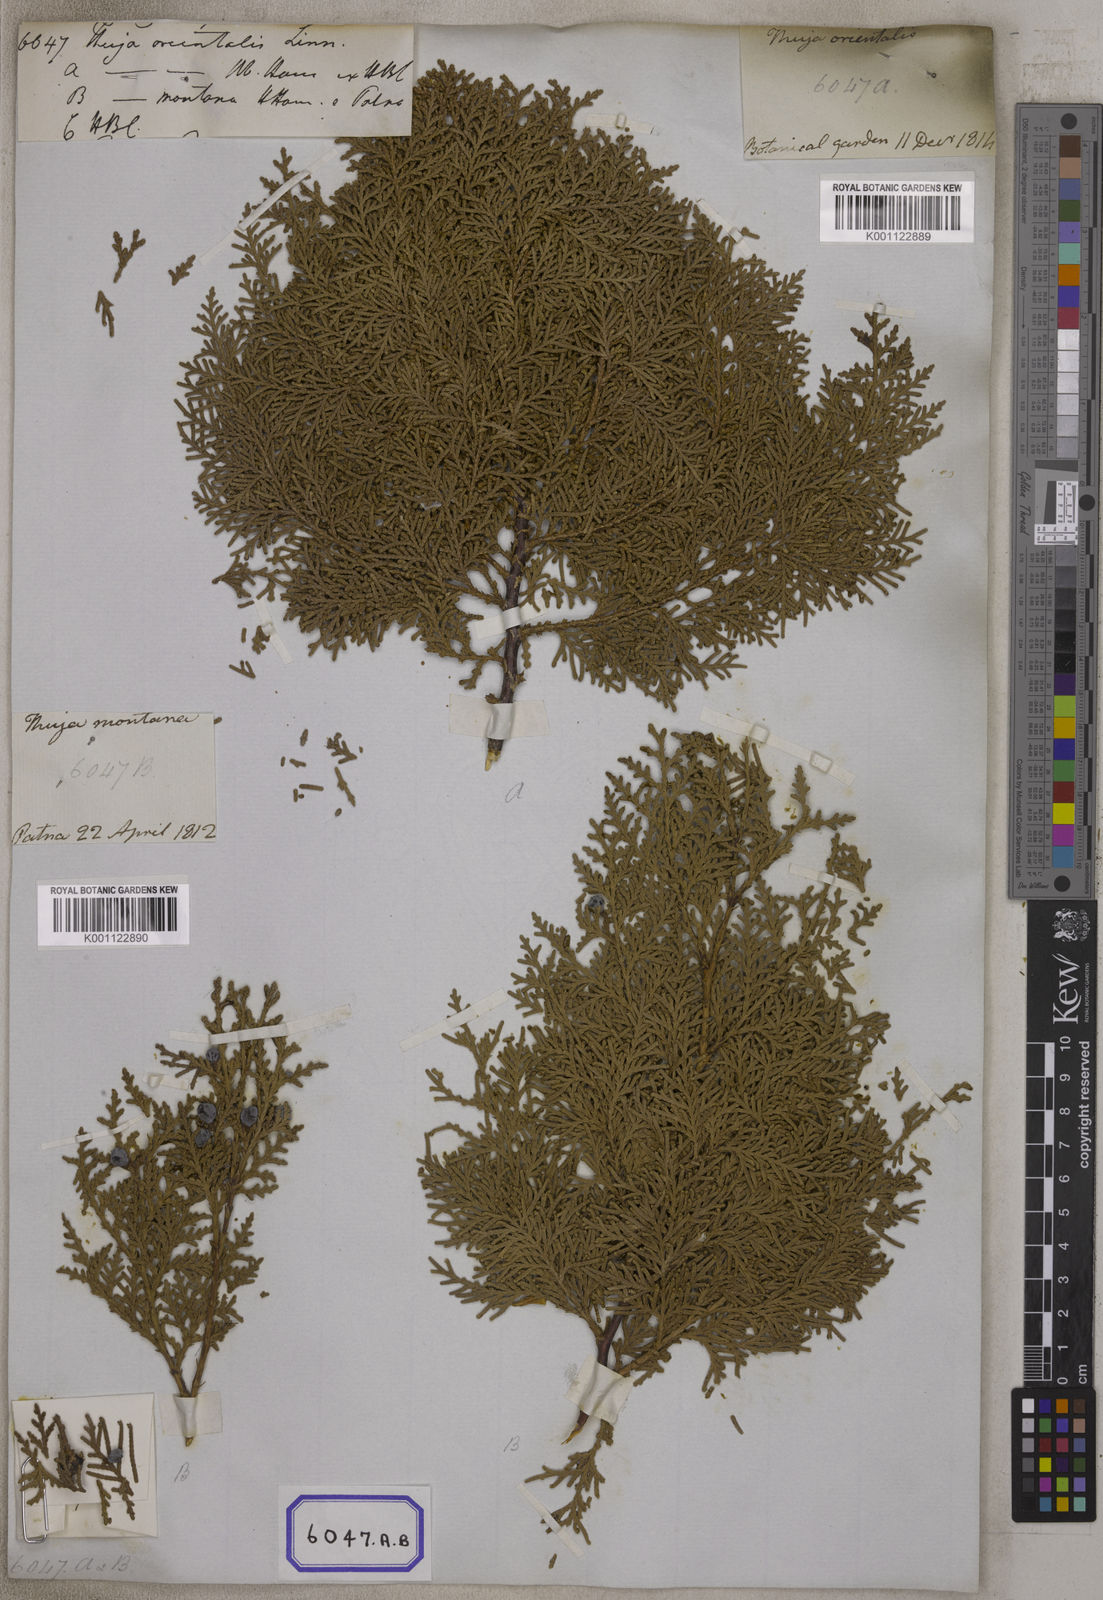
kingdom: Plantae
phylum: Tracheophyta
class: Pinopsida
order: Pinales
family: Cupressaceae
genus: Platycladus
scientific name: Platycladus orientalis
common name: Chinese thuja
